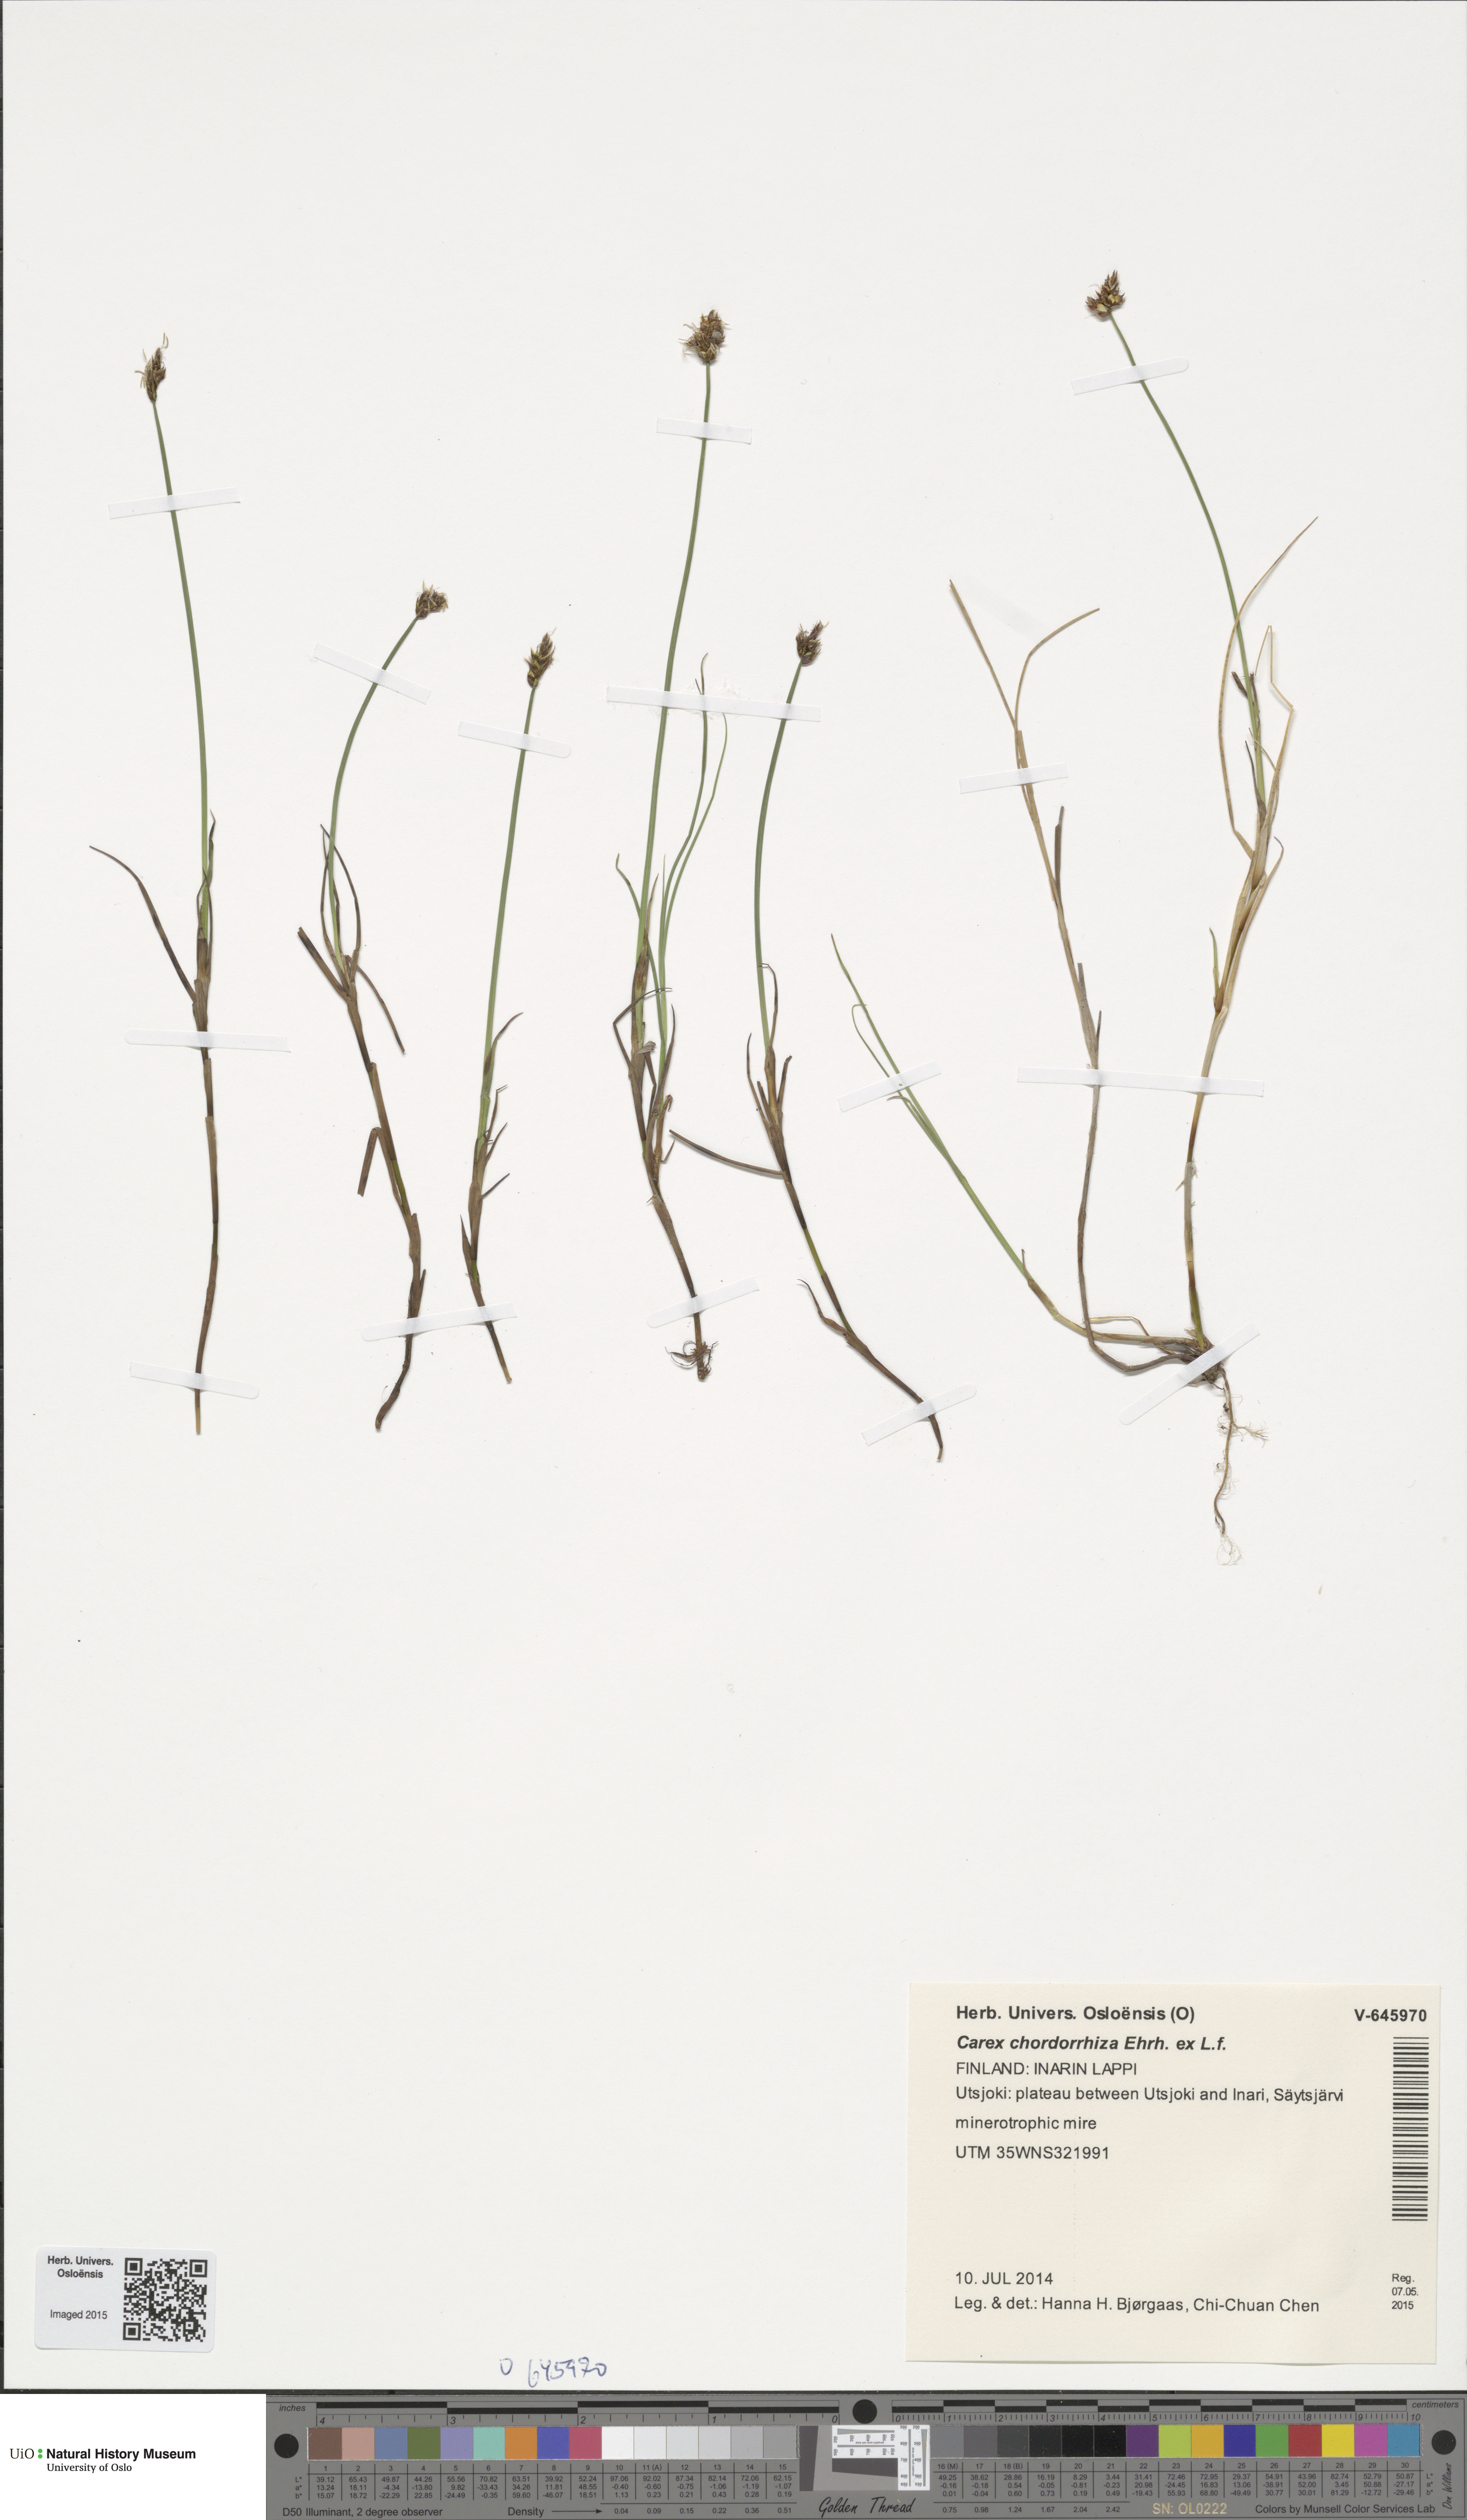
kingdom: Plantae
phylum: Tracheophyta
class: Liliopsida
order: Poales
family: Cyperaceae
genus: Carex
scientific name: Carex chordorrhiza
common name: String sedge
